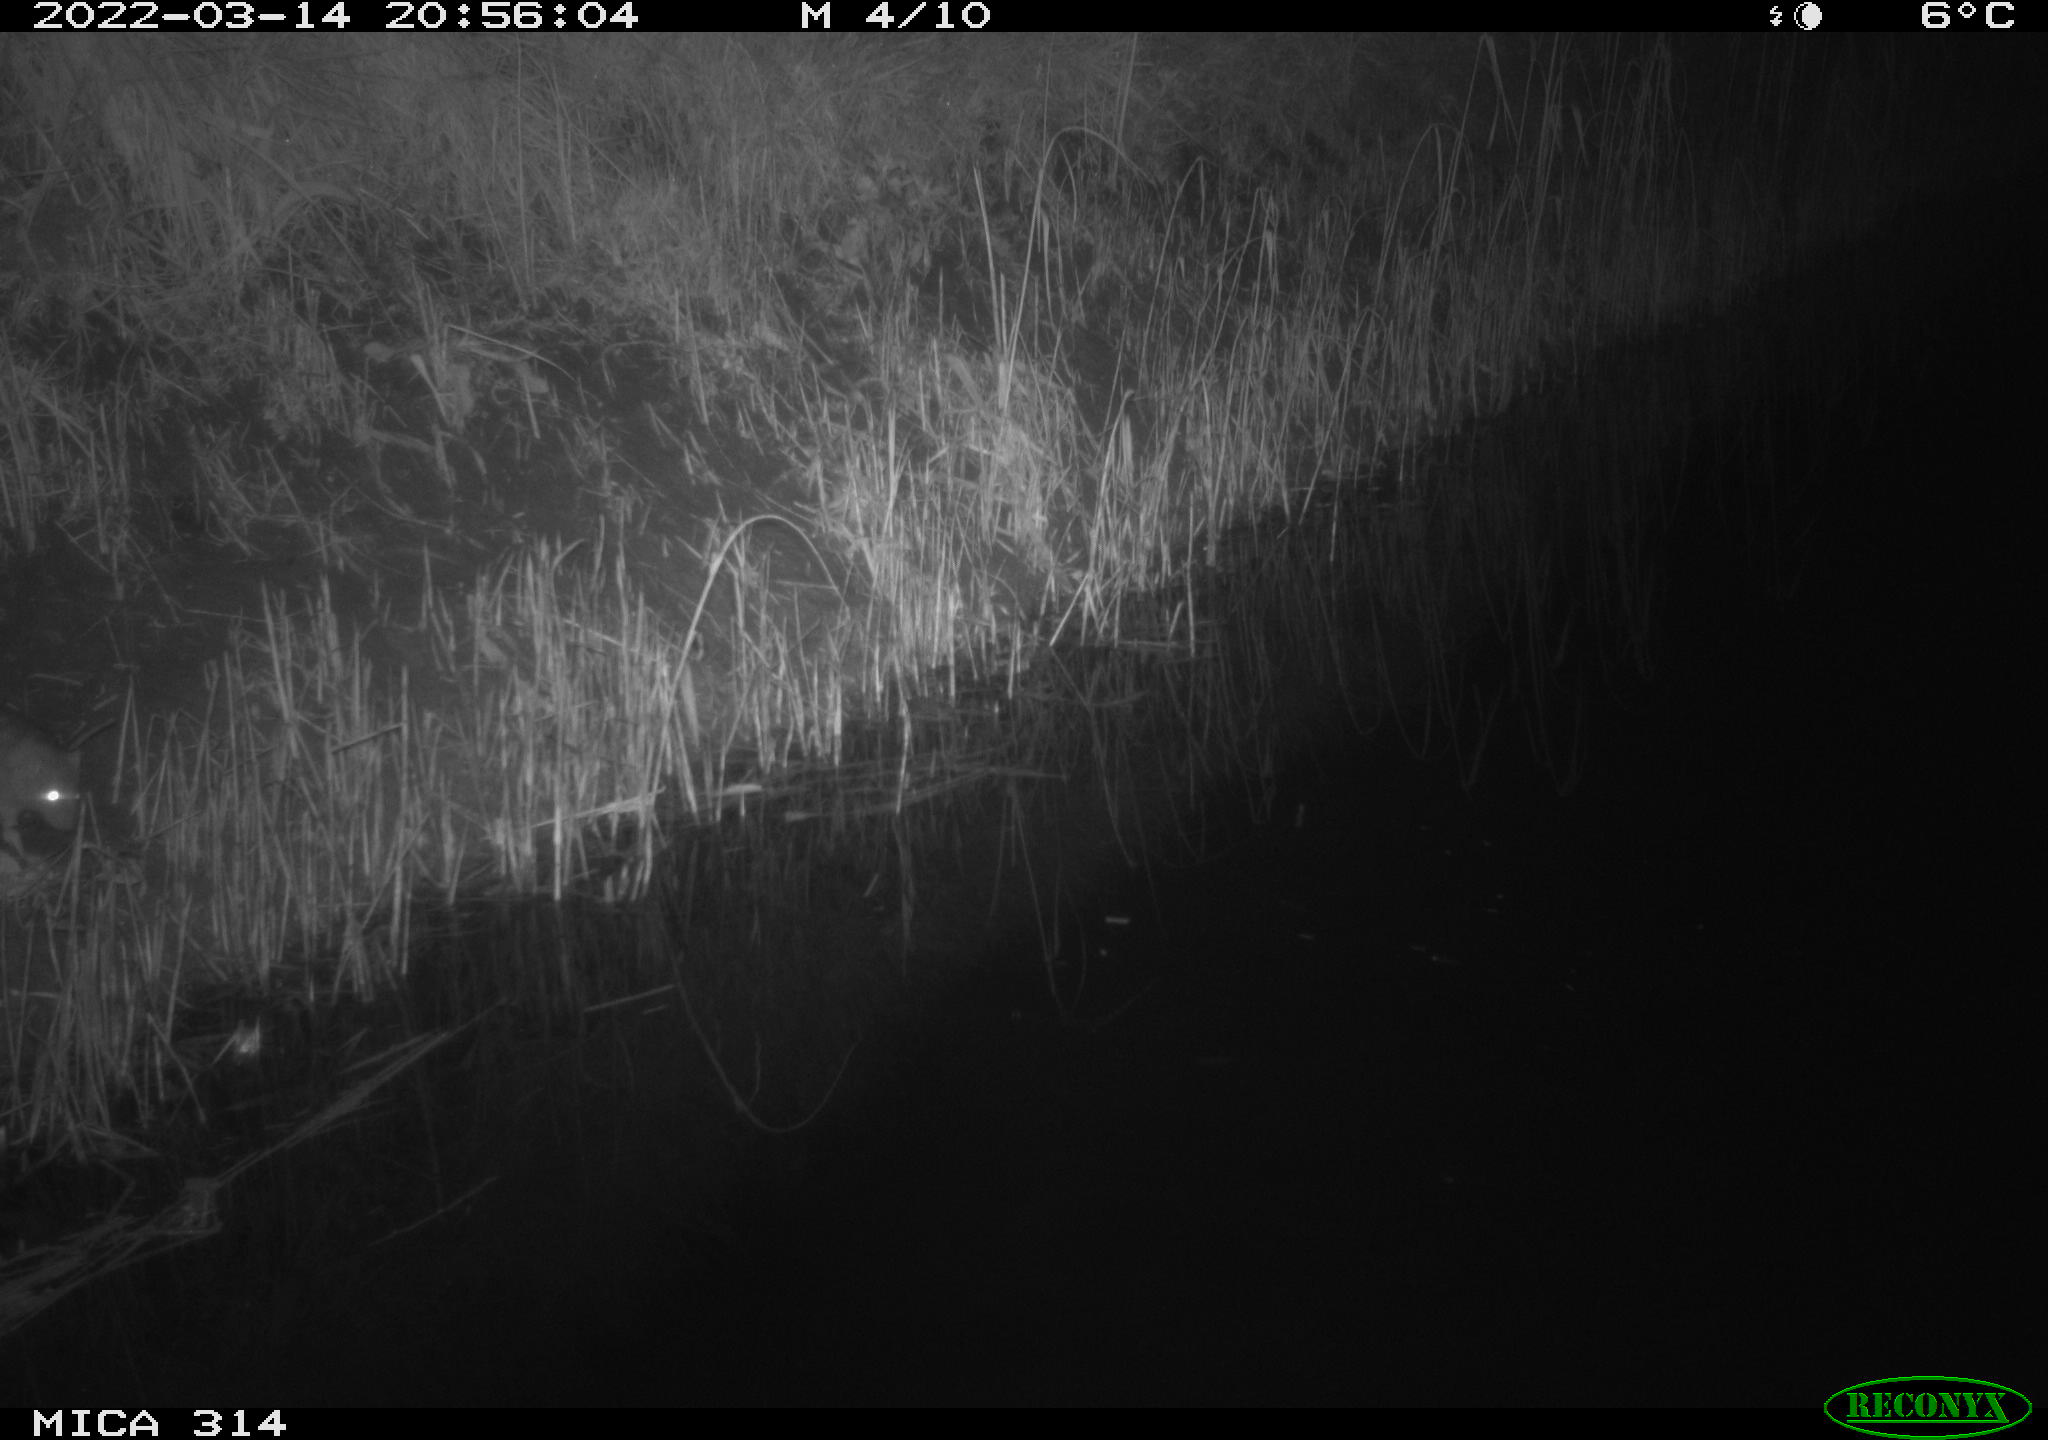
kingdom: Animalia
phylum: Chordata
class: Mammalia
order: Rodentia
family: Muridae
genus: Rattus
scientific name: Rattus norvegicus
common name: Brown rat
